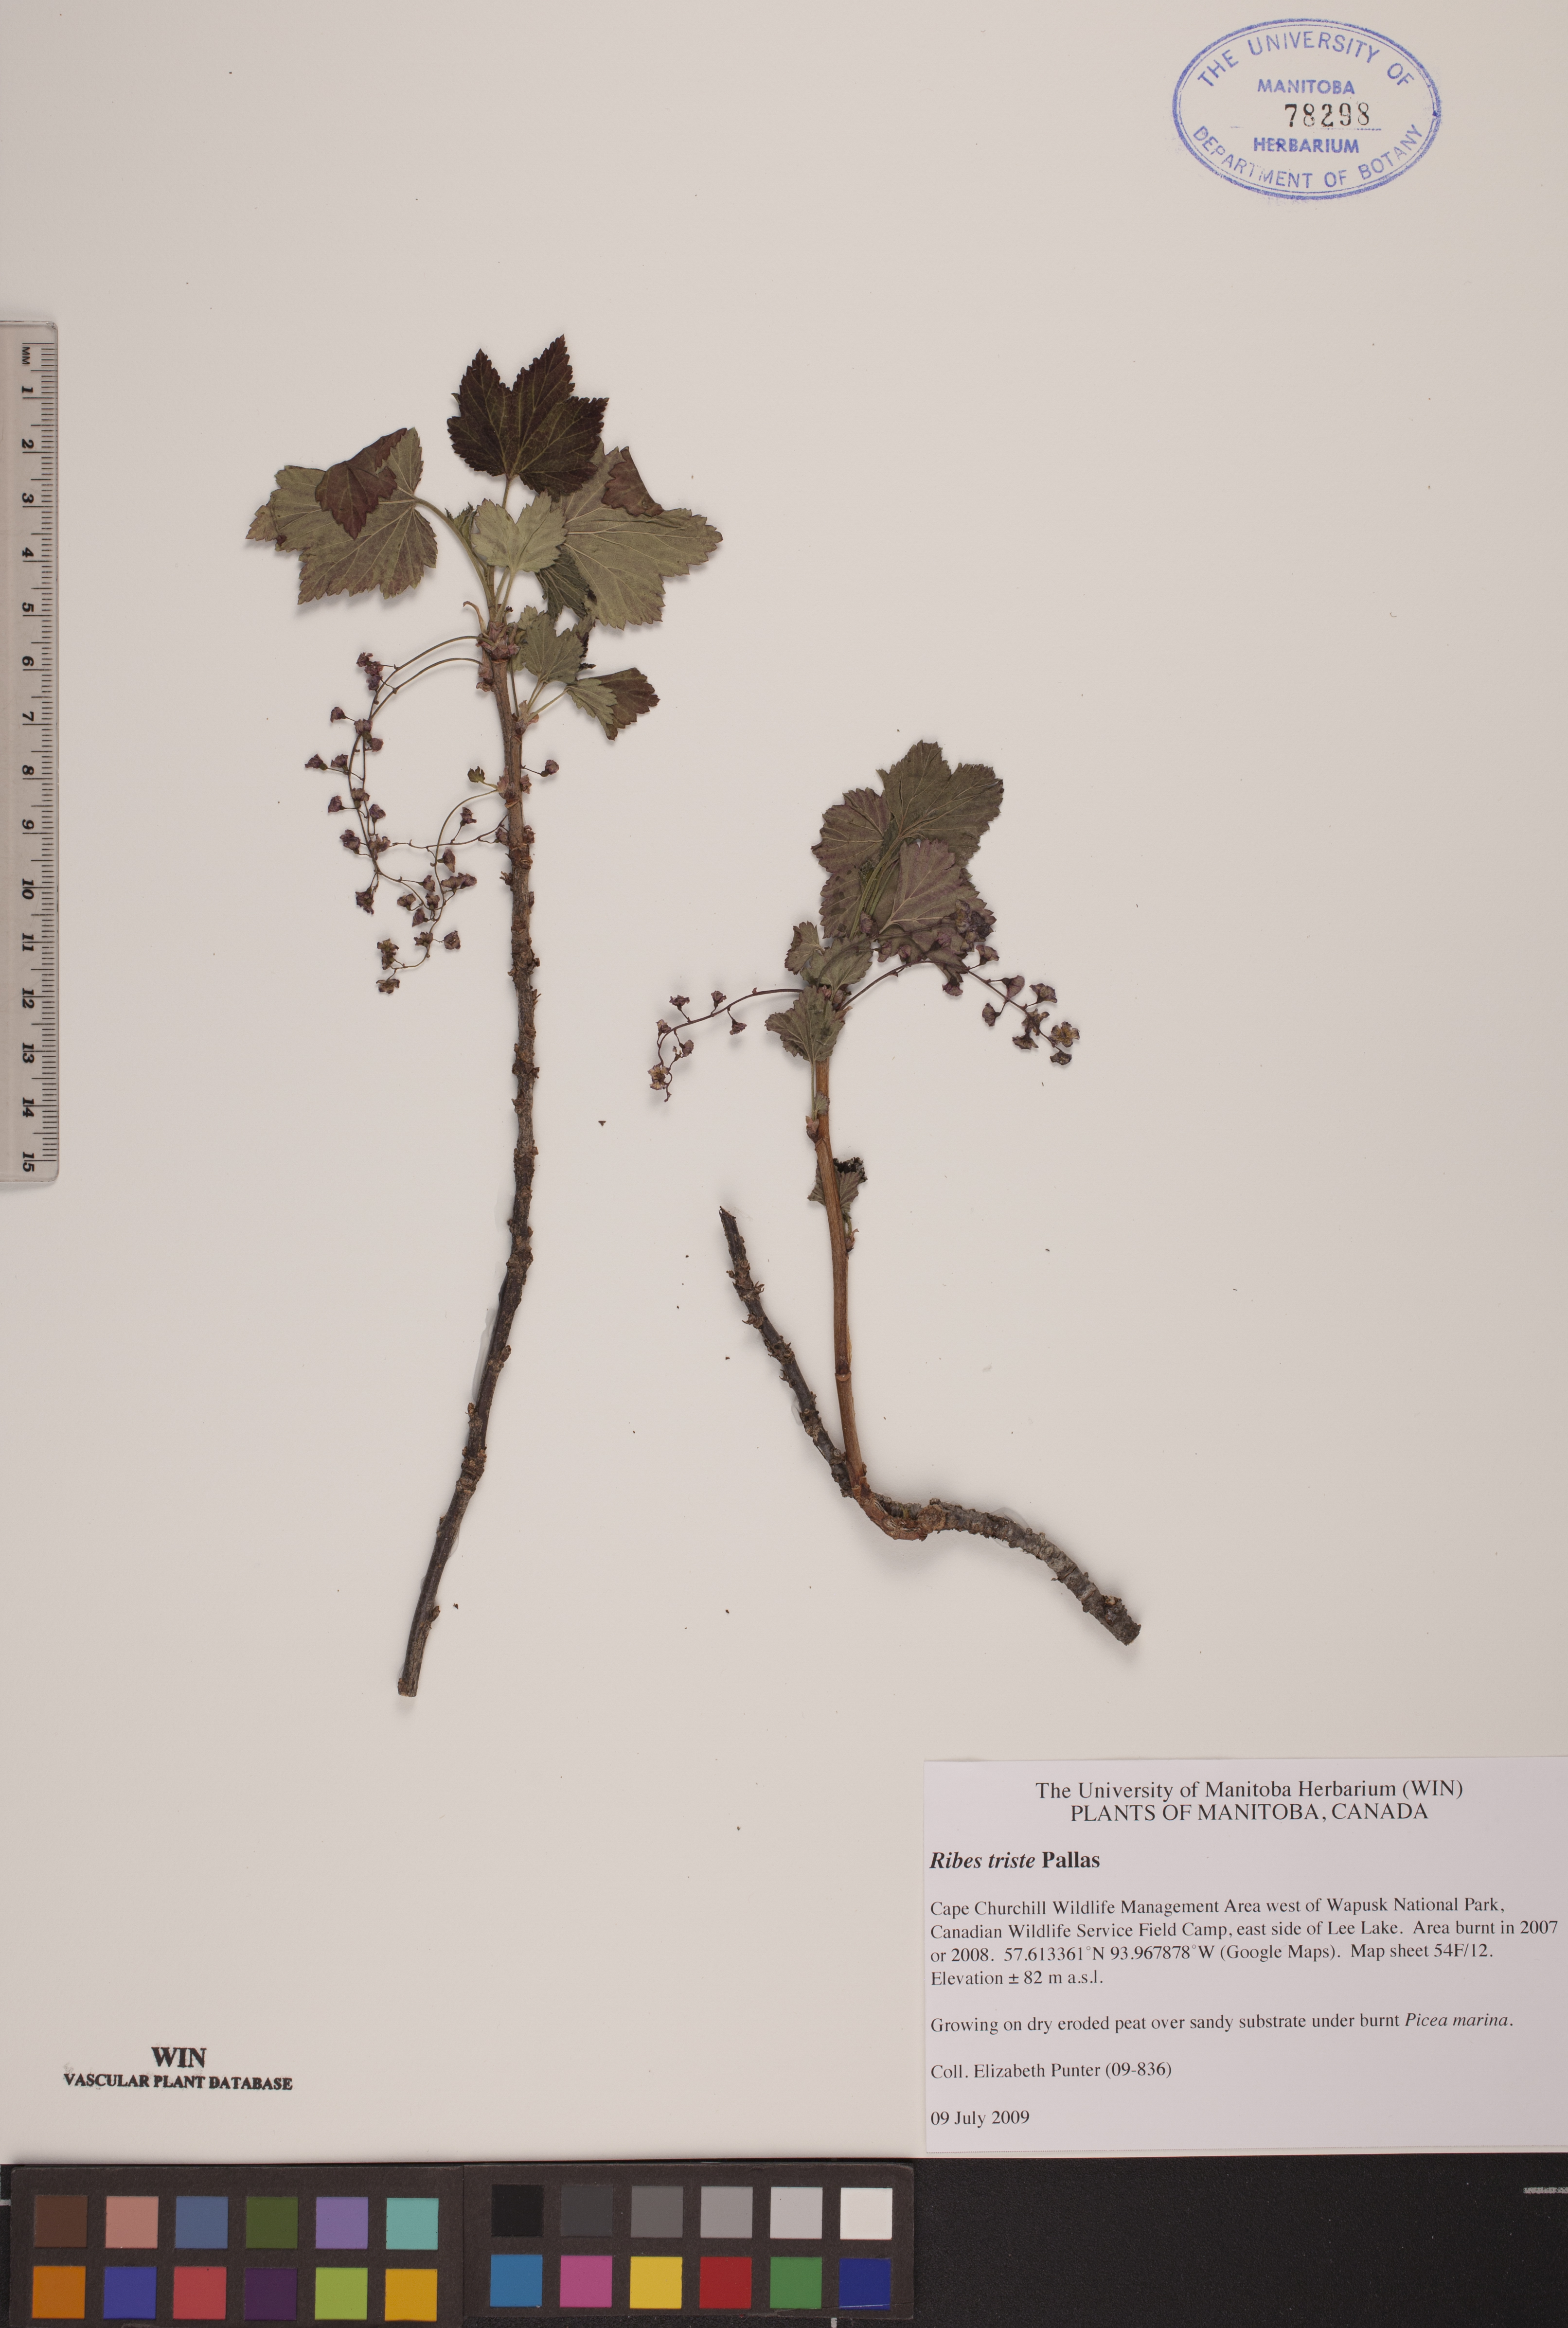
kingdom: Plantae
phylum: Tracheophyta
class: Magnoliopsida
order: Saxifragales
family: Grossulariaceae
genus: Ribes
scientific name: Ribes triste
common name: Swamp red currant
